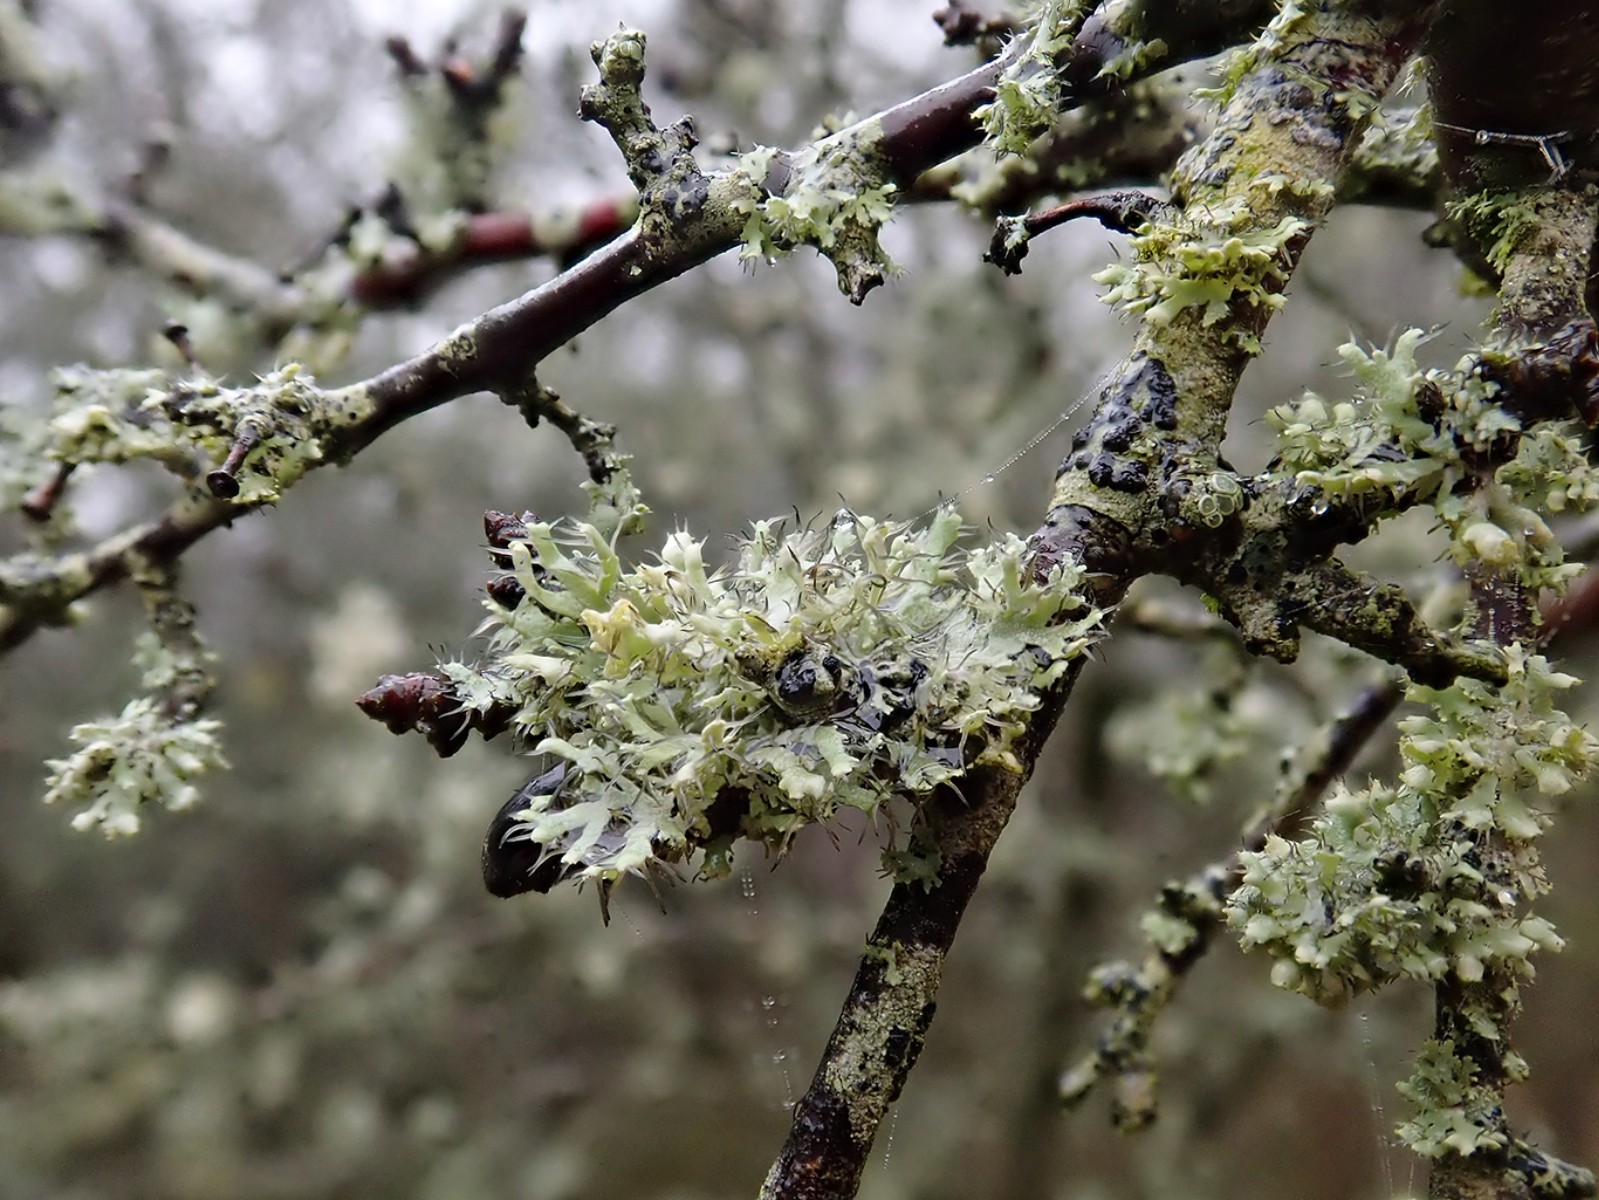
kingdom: Fungi
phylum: Ascomycota
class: Lecanoromycetes
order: Caliciales
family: Physciaceae
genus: Physcia
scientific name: Physcia adscendens
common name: hætte-rosetlav
